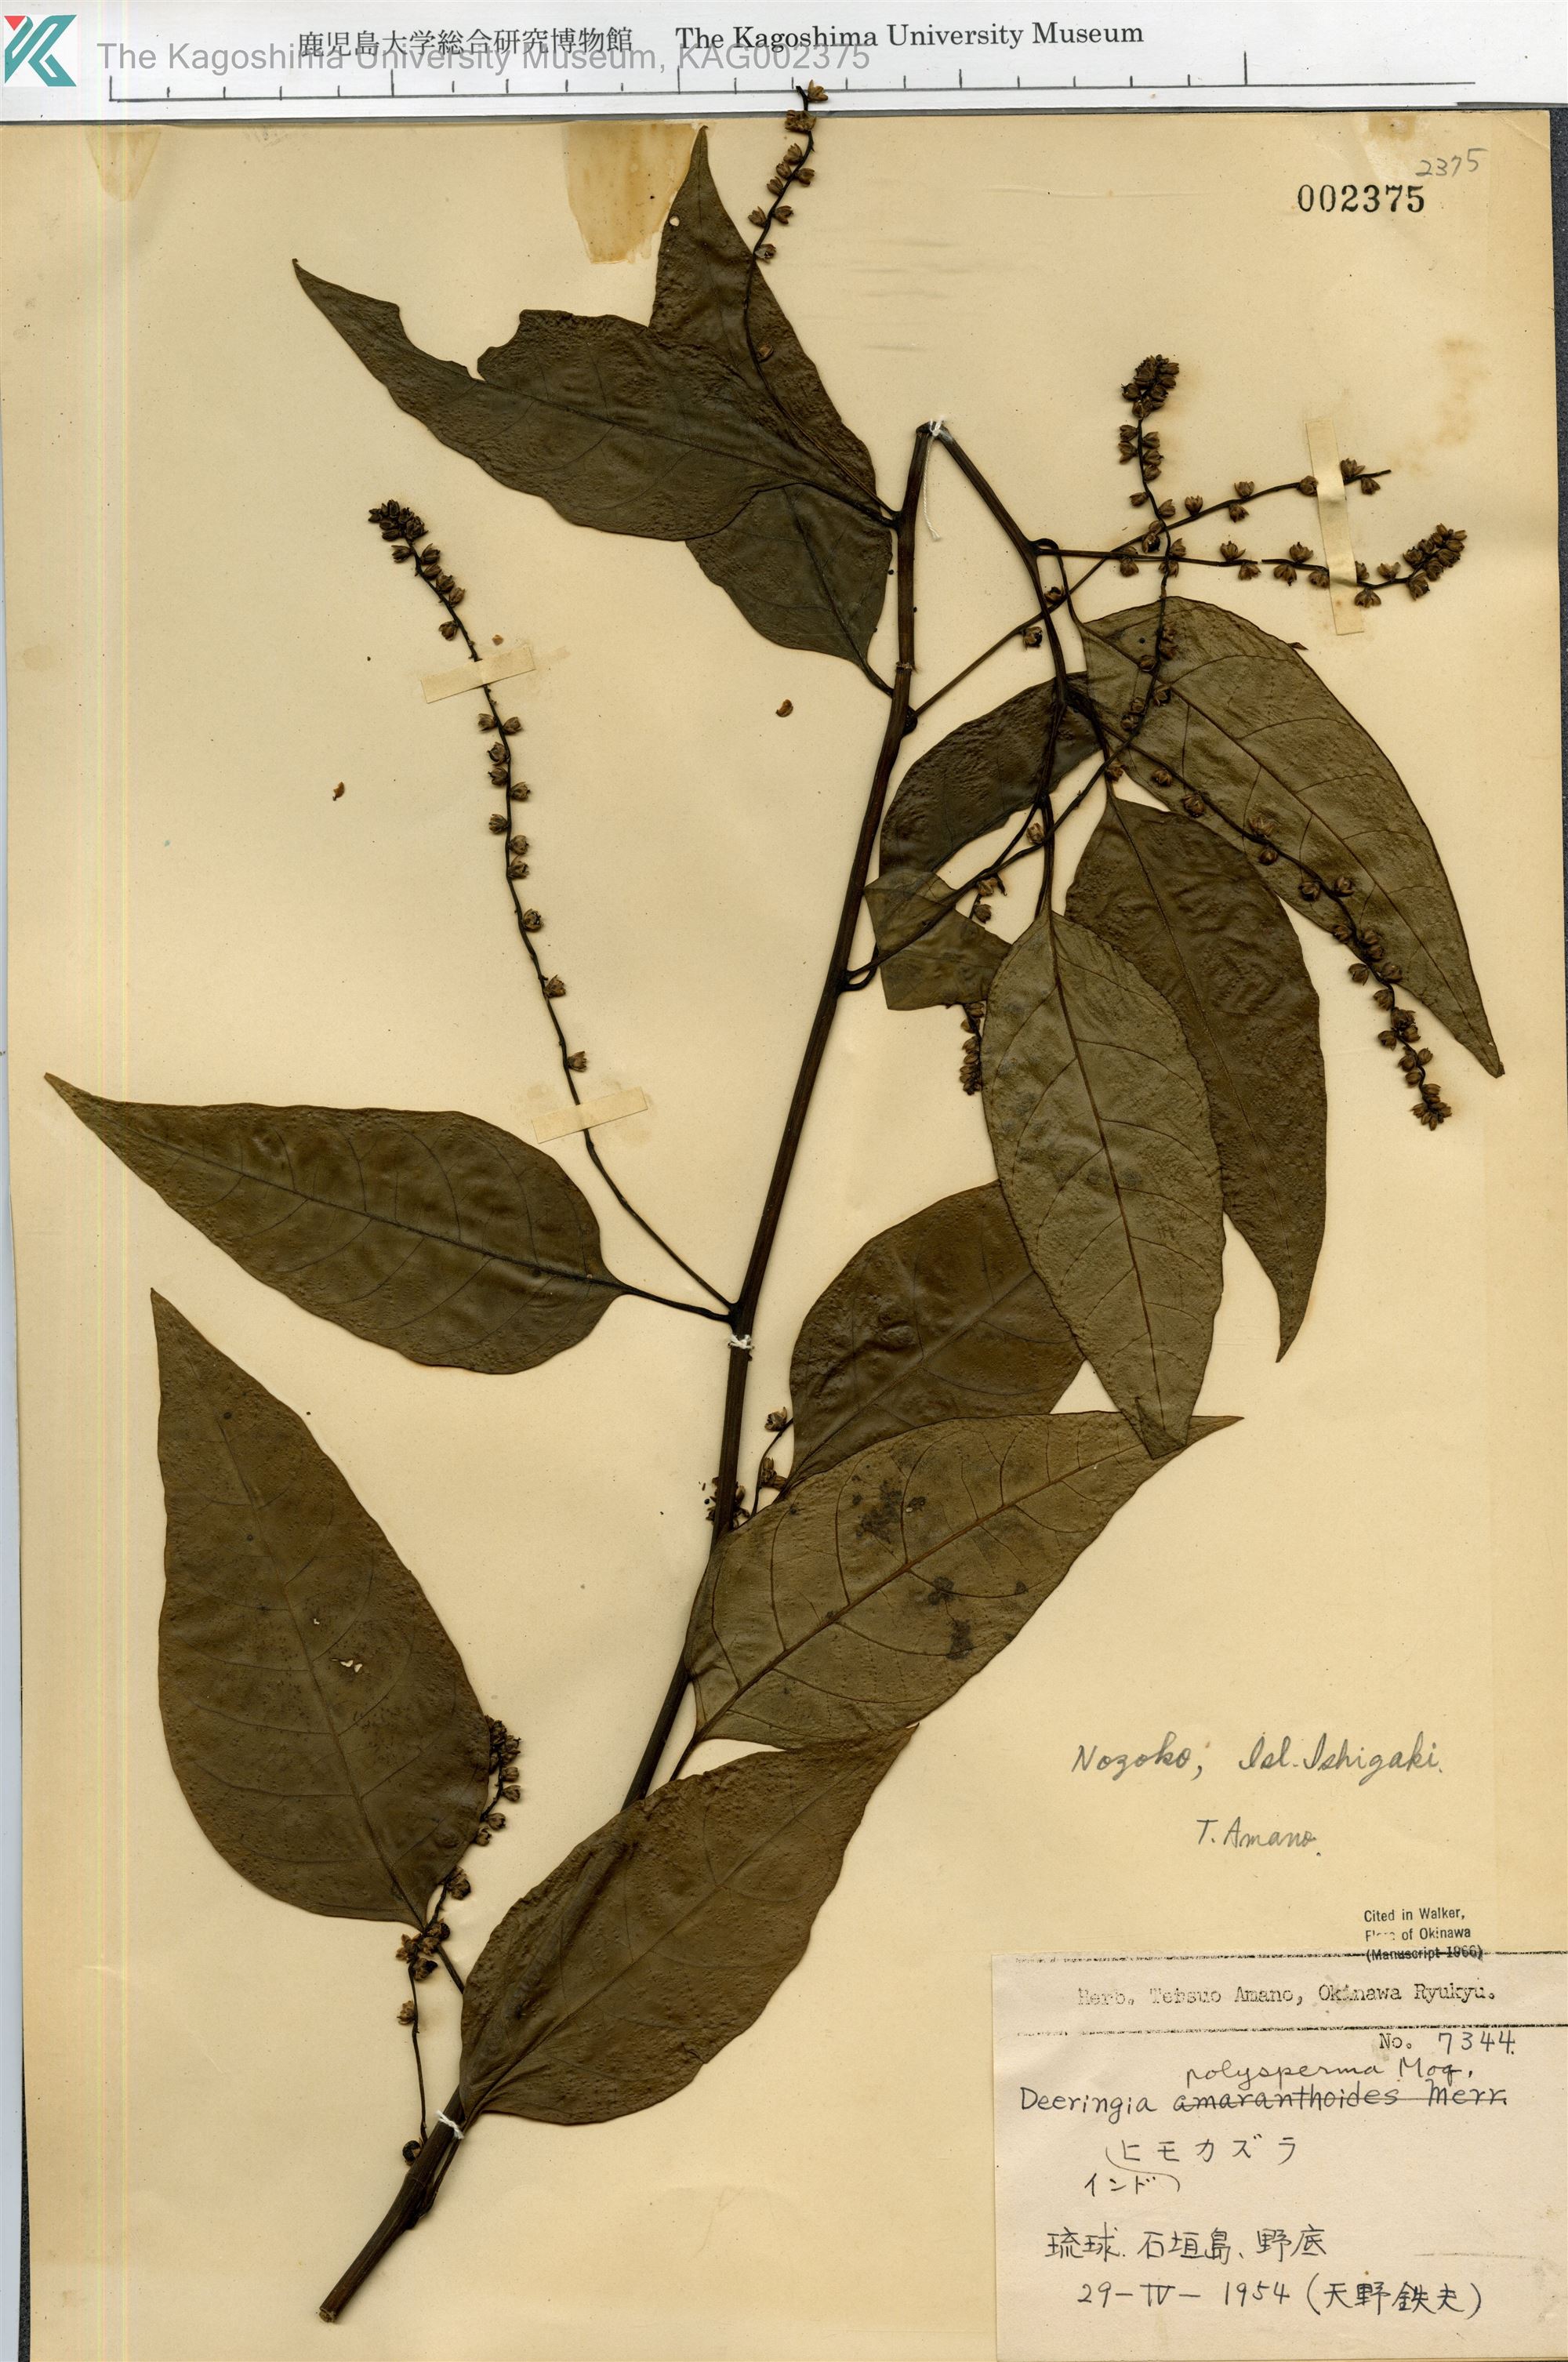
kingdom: Plantae
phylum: Tracheophyta
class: Magnoliopsida
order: Caryophyllales
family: Amaranthaceae
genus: Deeringia
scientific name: Deeringia polysperma
